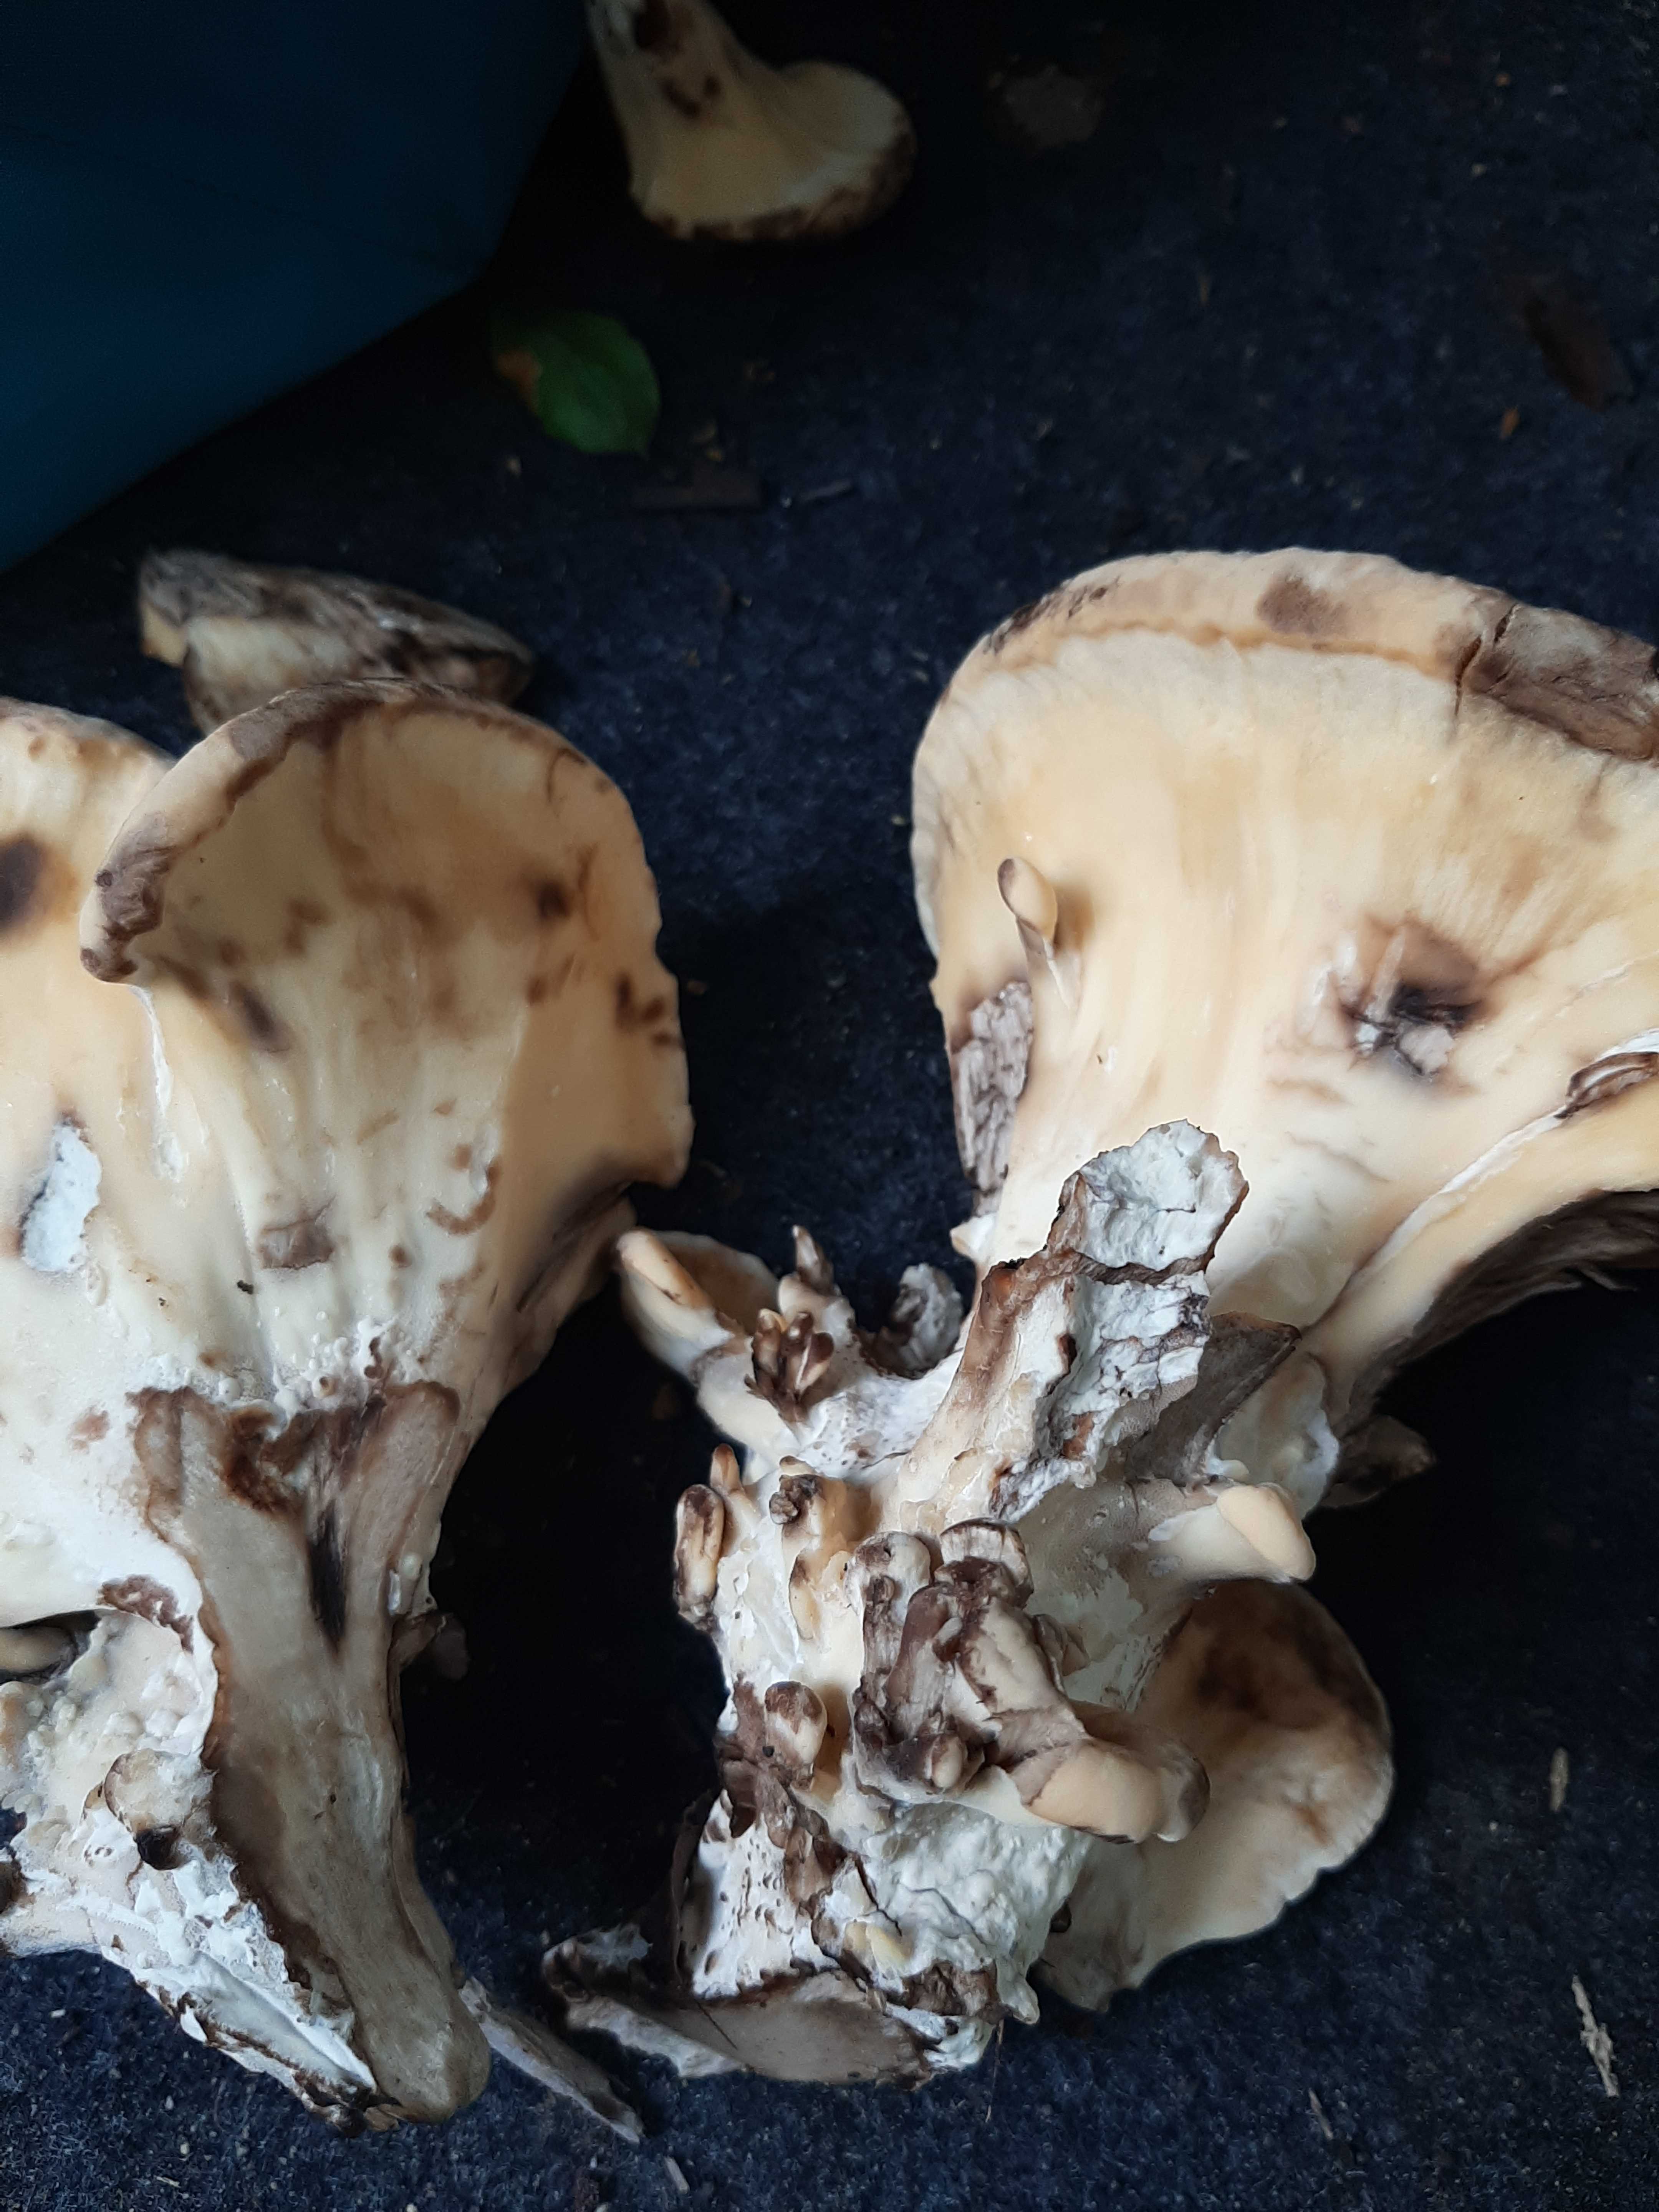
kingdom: Fungi
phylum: Basidiomycota
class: Agaricomycetes
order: Polyporales
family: Meripilaceae
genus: Meripilus
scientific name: Meripilus giganteus
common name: kæmpeporesvamp
